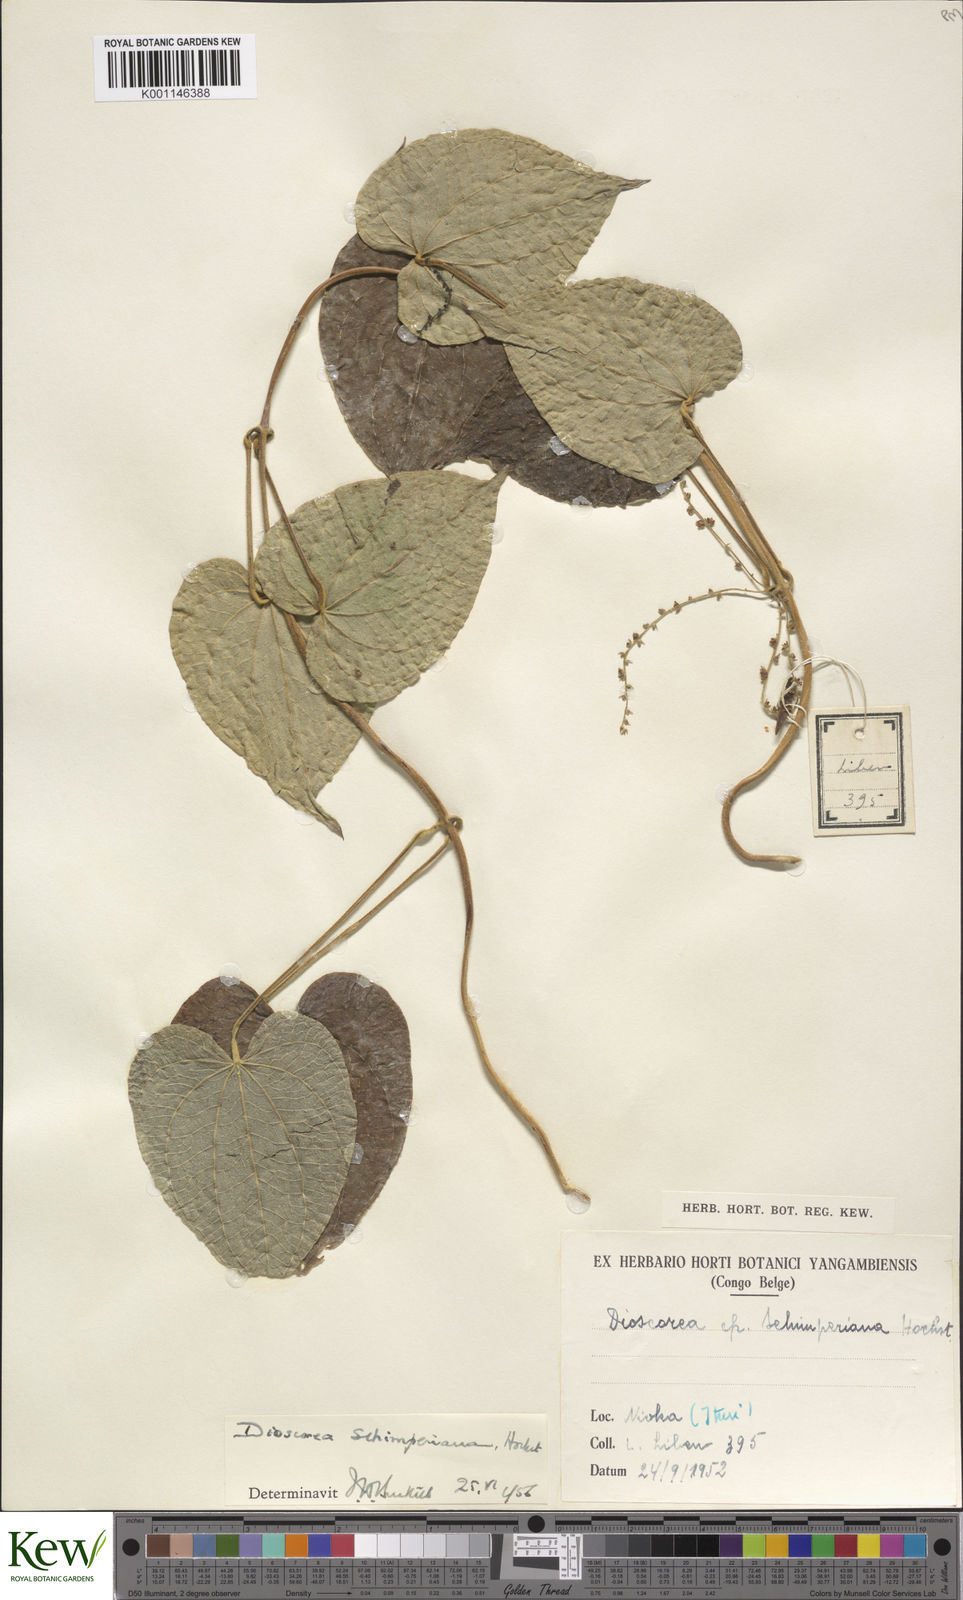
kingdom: Plantae
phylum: Tracheophyta
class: Liliopsida
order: Dioscoreales
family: Dioscoreaceae
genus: Dioscorea
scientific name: Dioscorea schimperiana
